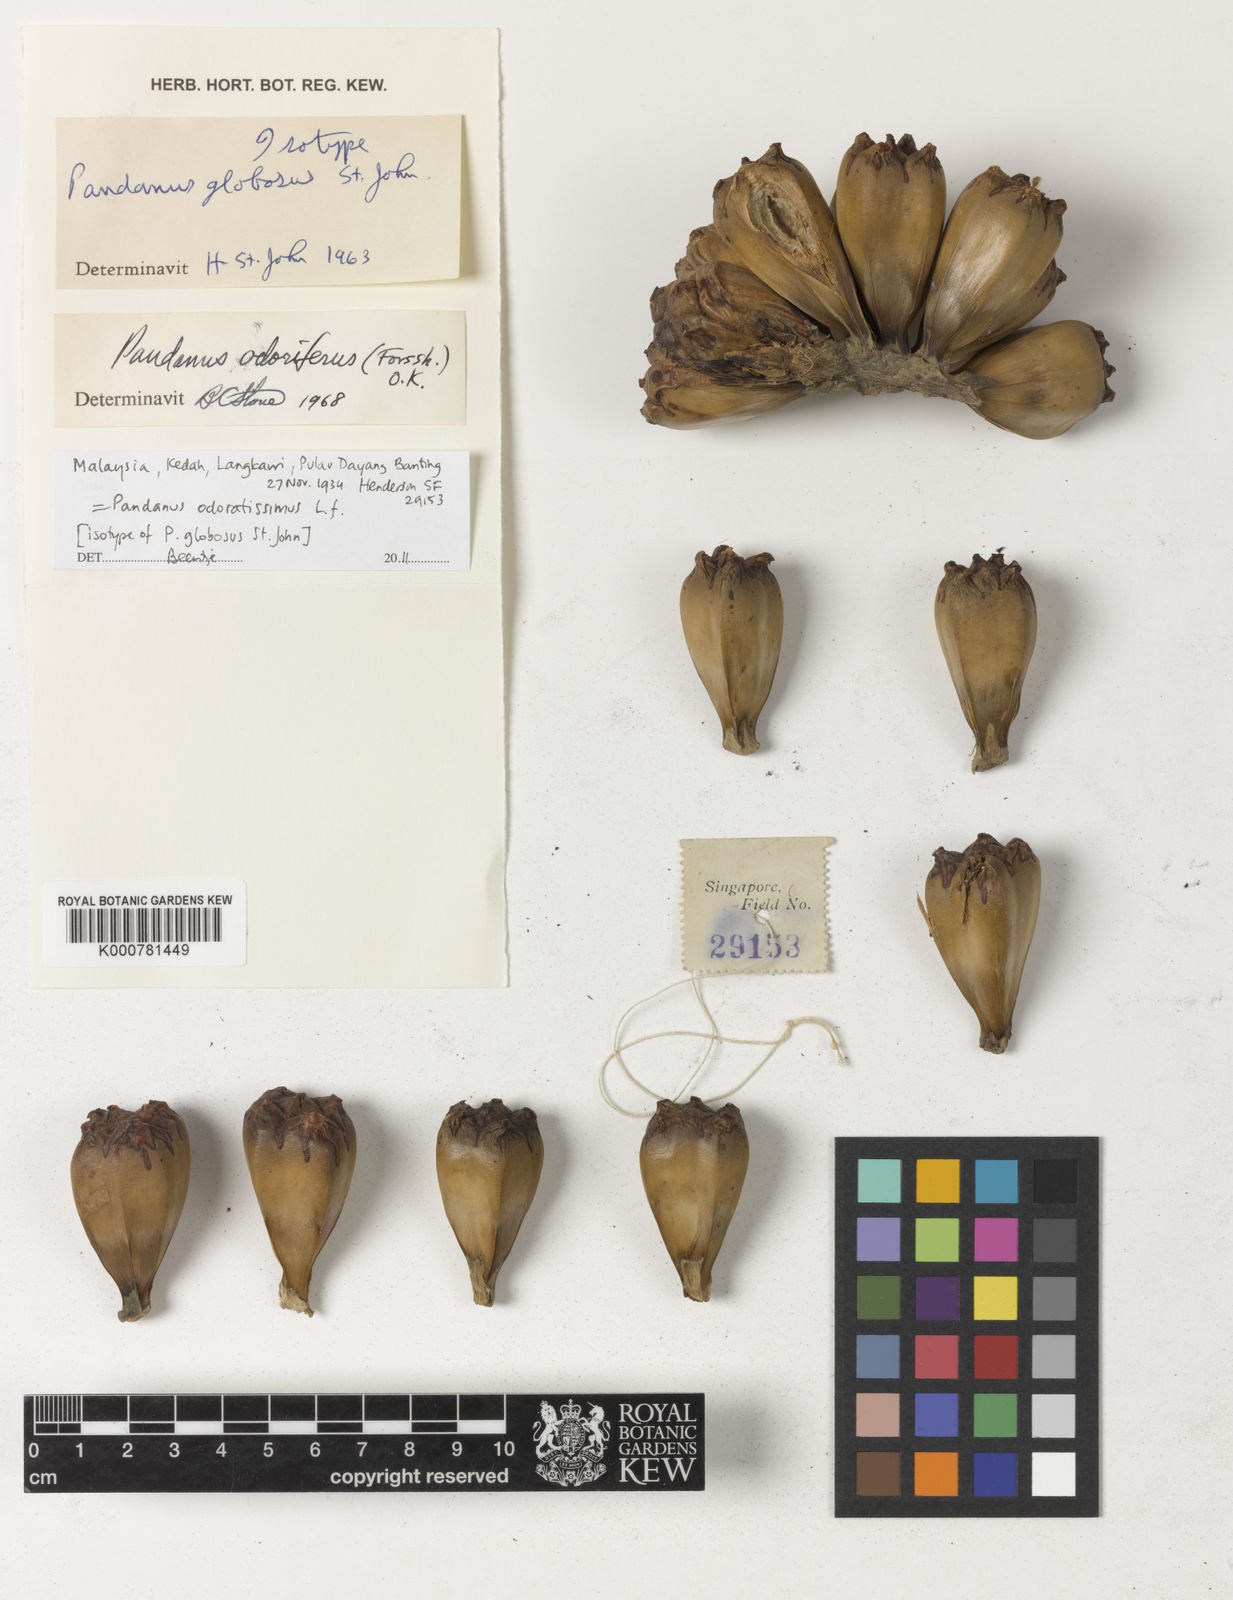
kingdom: Plantae
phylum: Tracheophyta
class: Liliopsida
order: Pandanales
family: Pandanaceae
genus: Pandanus
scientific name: Pandanus
